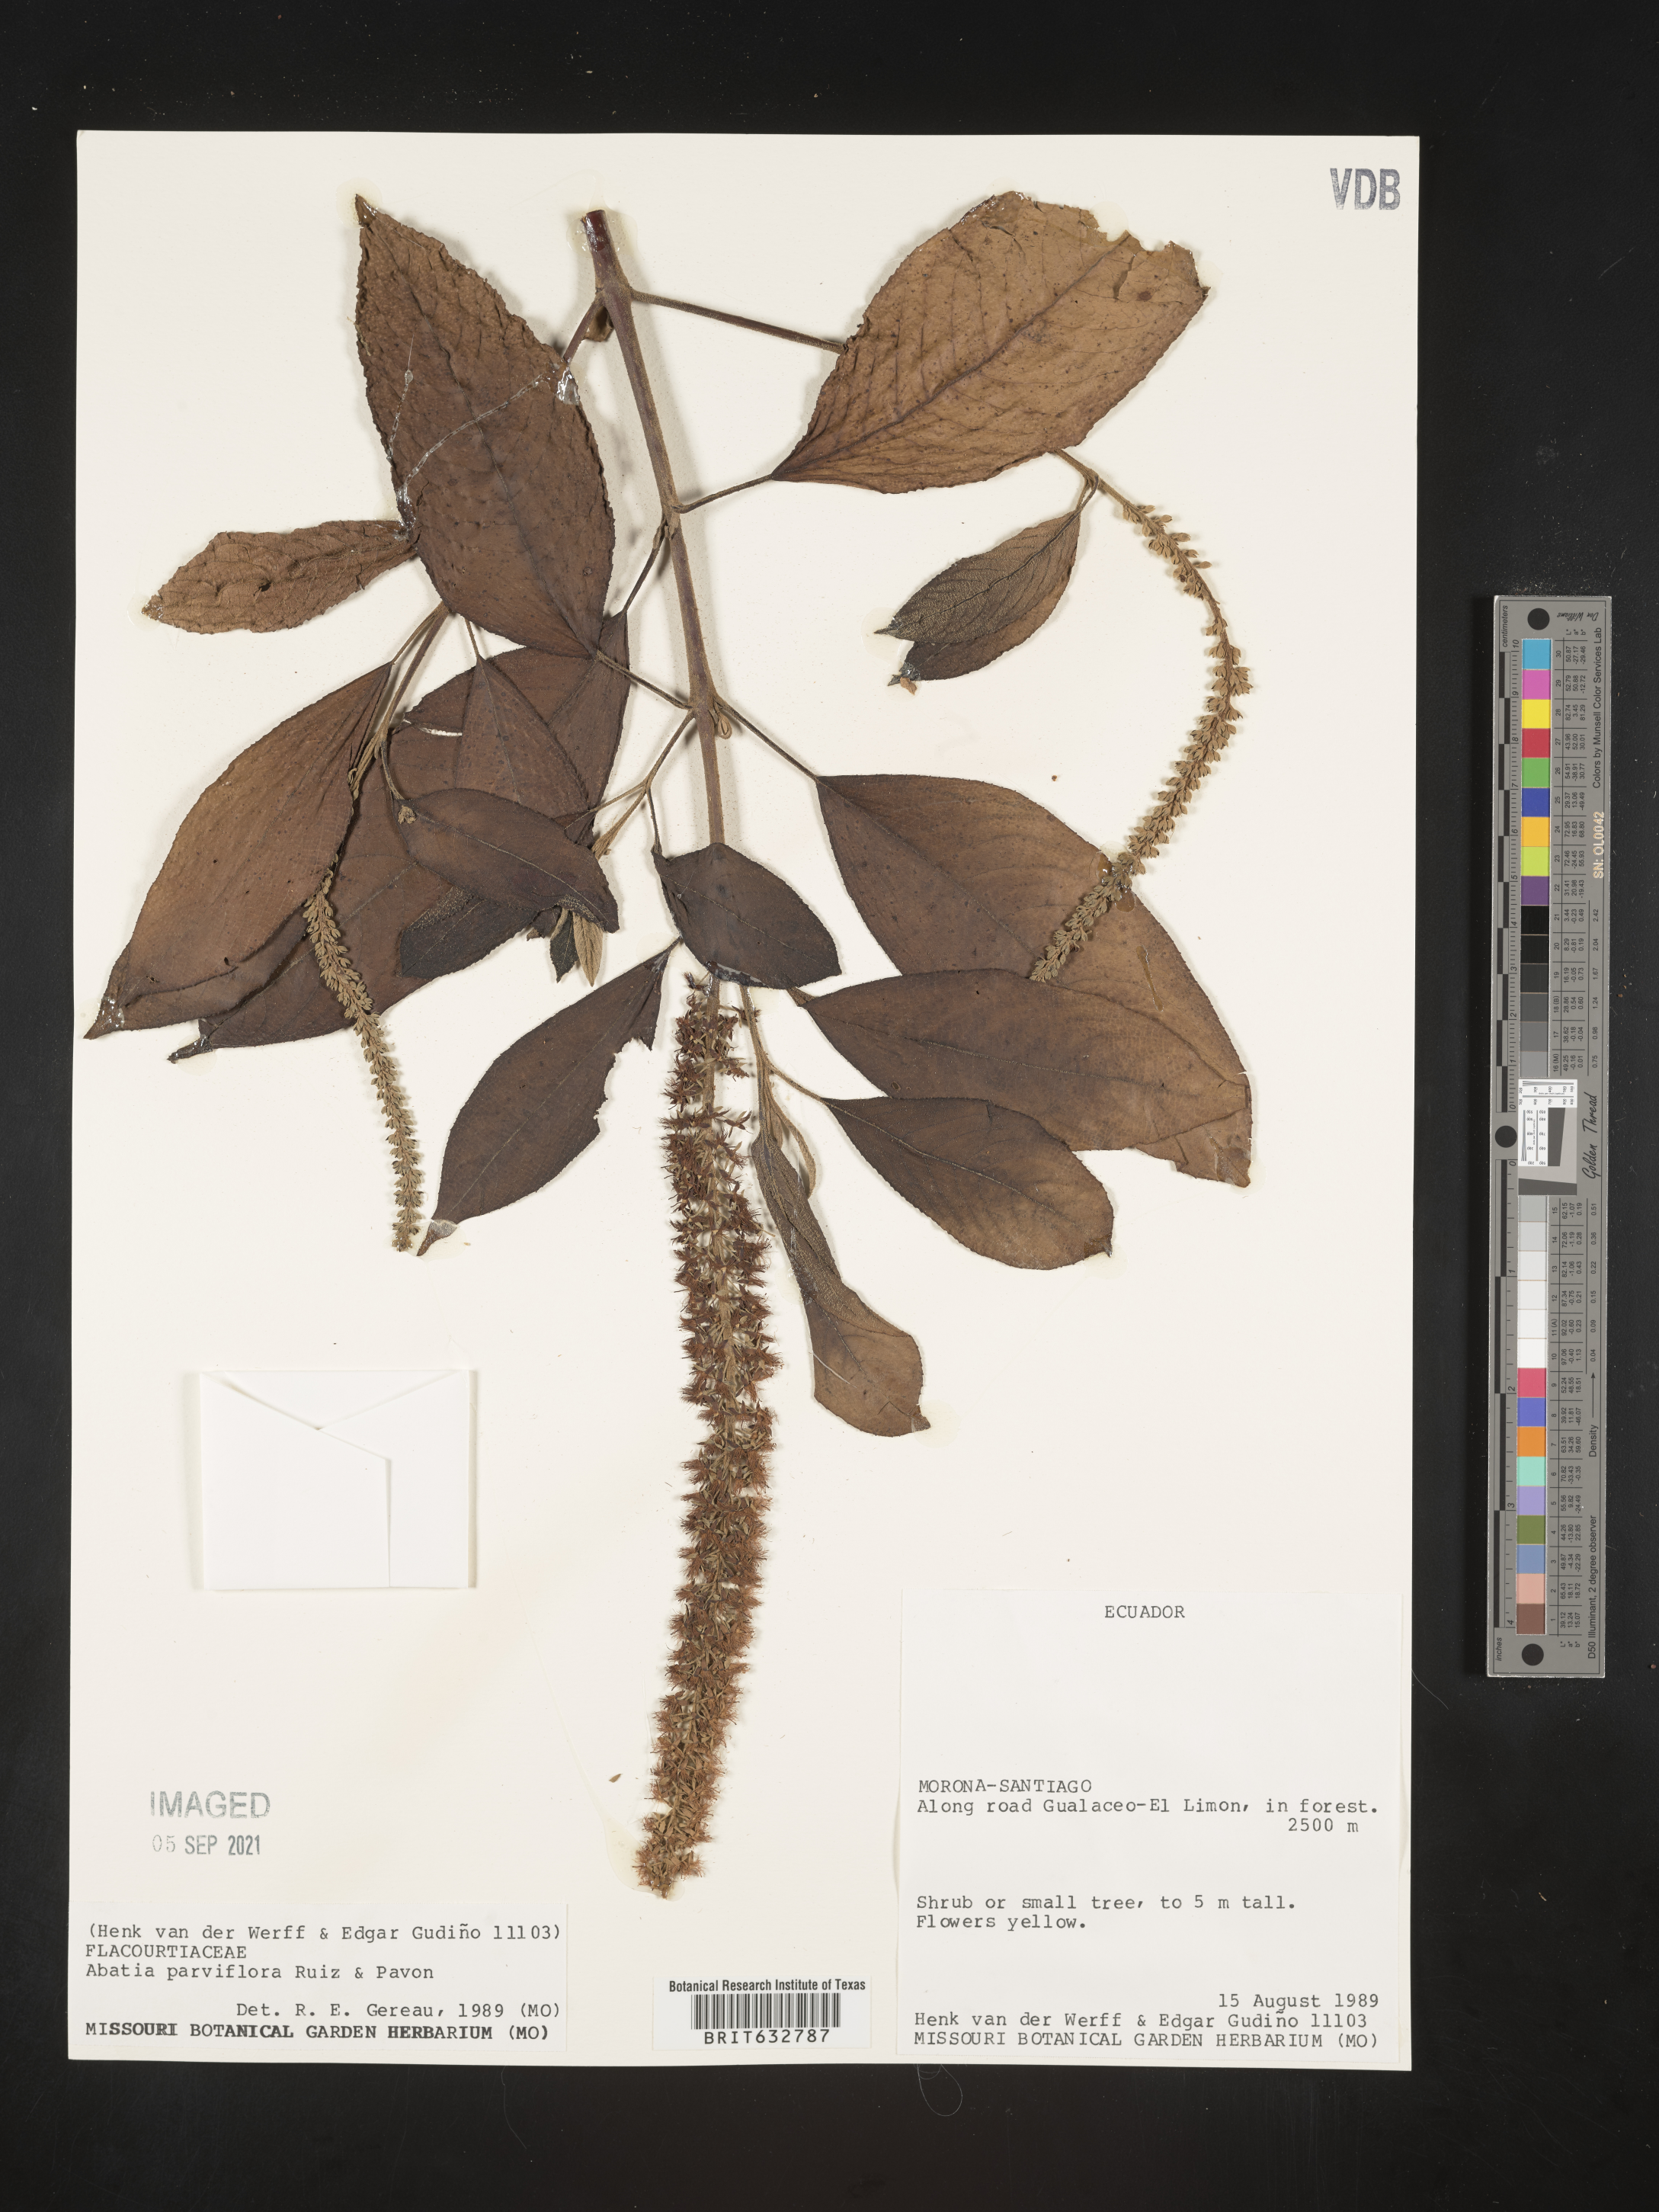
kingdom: Plantae
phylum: Tracheophyta
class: Magnoliopsida
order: Malpighiales
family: Salicaceae
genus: Abatia
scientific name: Abatia
